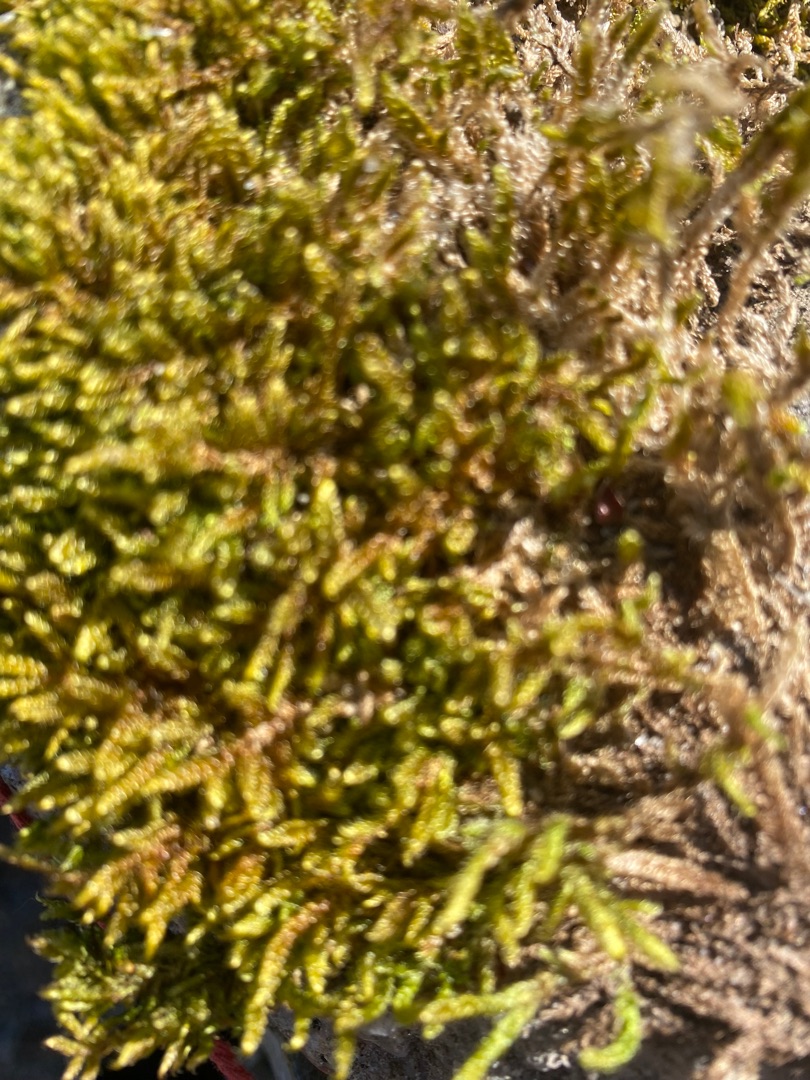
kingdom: Plantae
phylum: Bryophyta
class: Bryopsida
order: Hypnales
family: Hypnaceae
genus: Hypnum
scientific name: Hypnum cupressiforme
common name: Almindelig cypresmos
